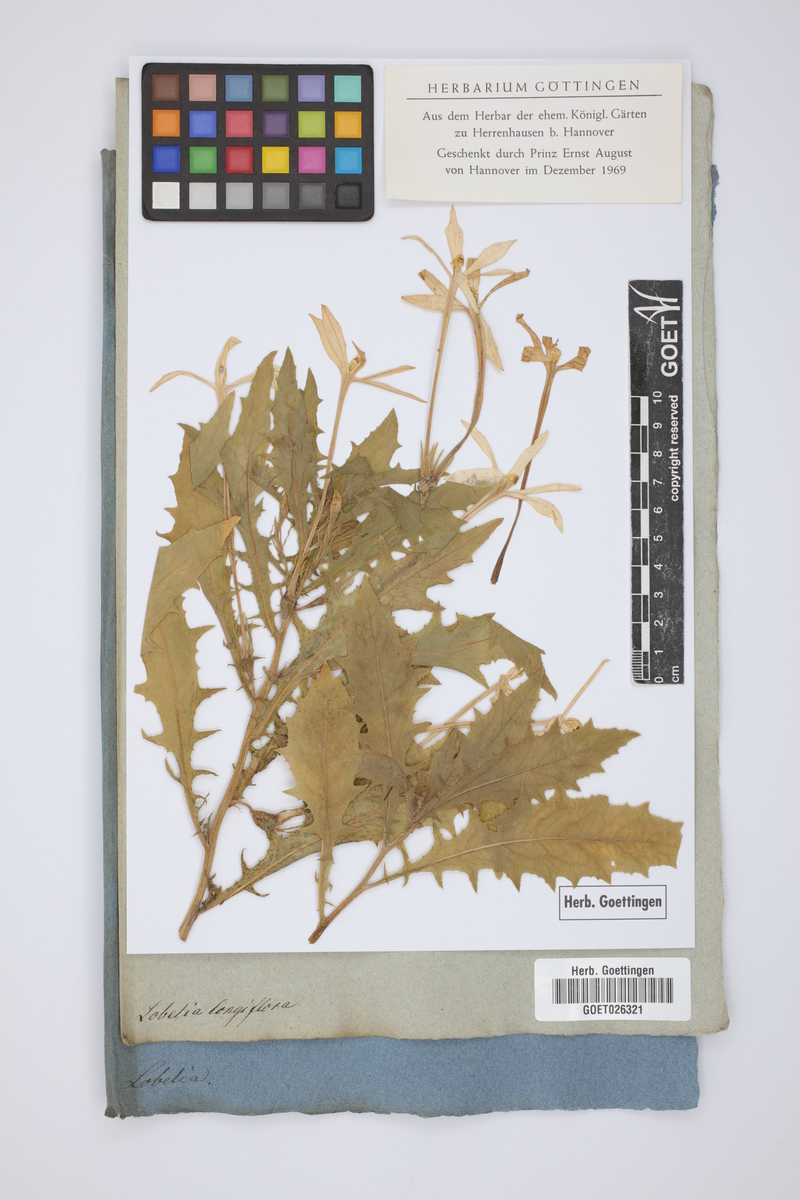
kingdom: Plantae
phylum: Tracheophyta
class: Magnoliopsida
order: Asterales
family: Campanulaceae
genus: Hippobroma
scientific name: Hippobroma longiflora
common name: Madamfate
